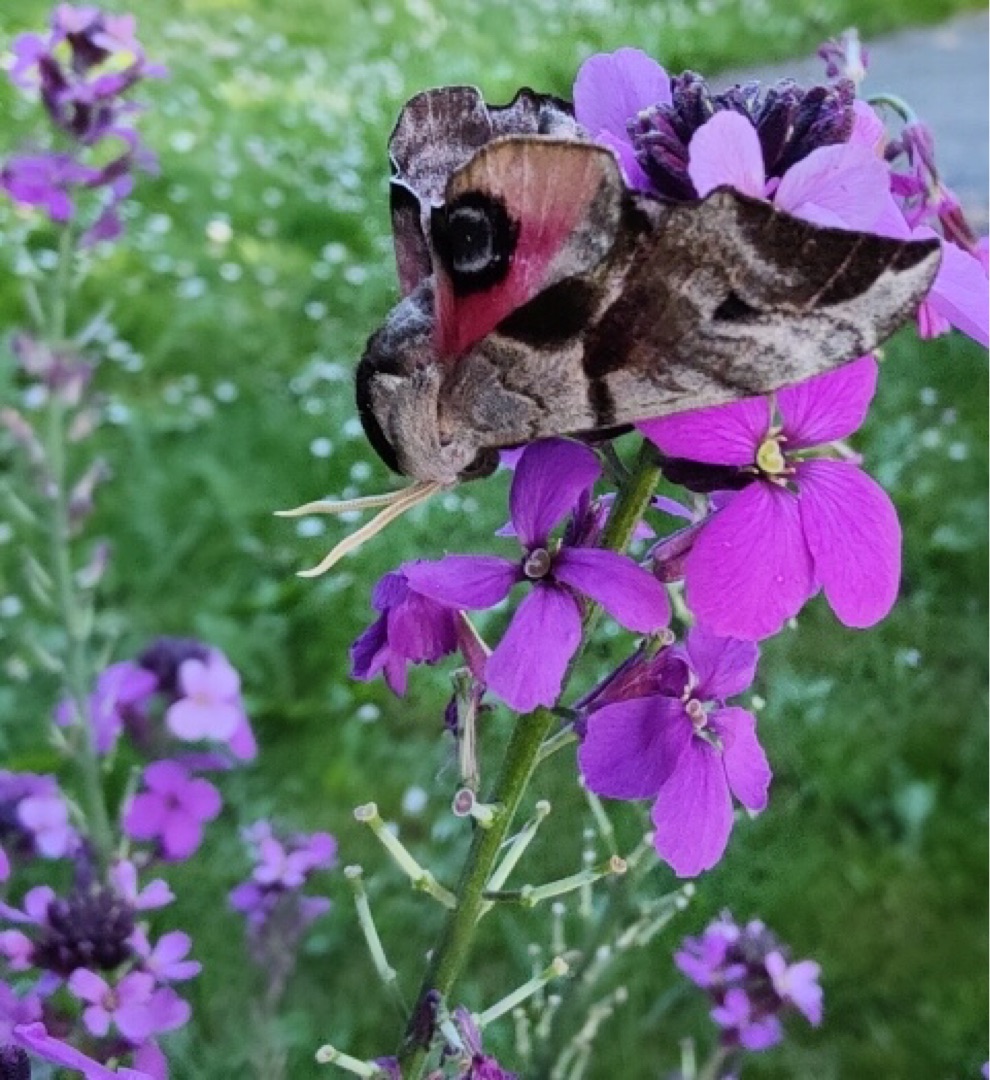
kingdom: Animalia
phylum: Arthropoda
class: Insecta
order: Lepidoptera
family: Sphingidae
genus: Smerinthus
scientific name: Smerinthus ocellata
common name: Aftenpåfugleøje
